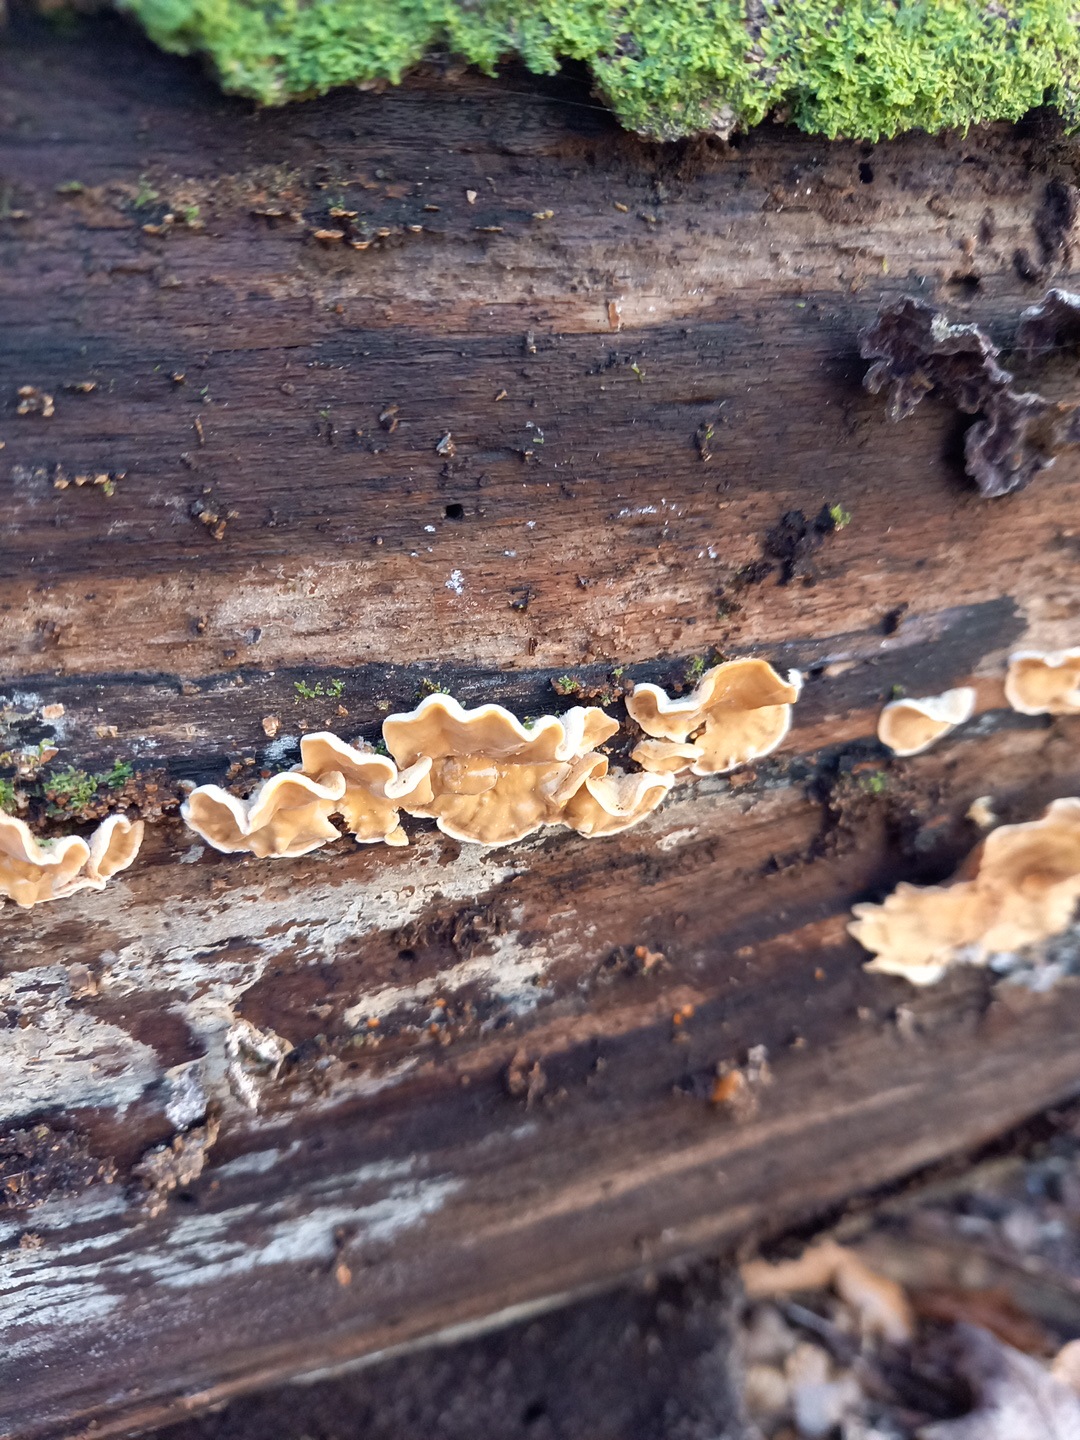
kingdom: Fungi
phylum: Basidiomycota
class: Agaricomycetes
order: Russulales
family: Stereaceae
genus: Stereum
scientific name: Stereum hirsutum
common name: håret lædersvamp
